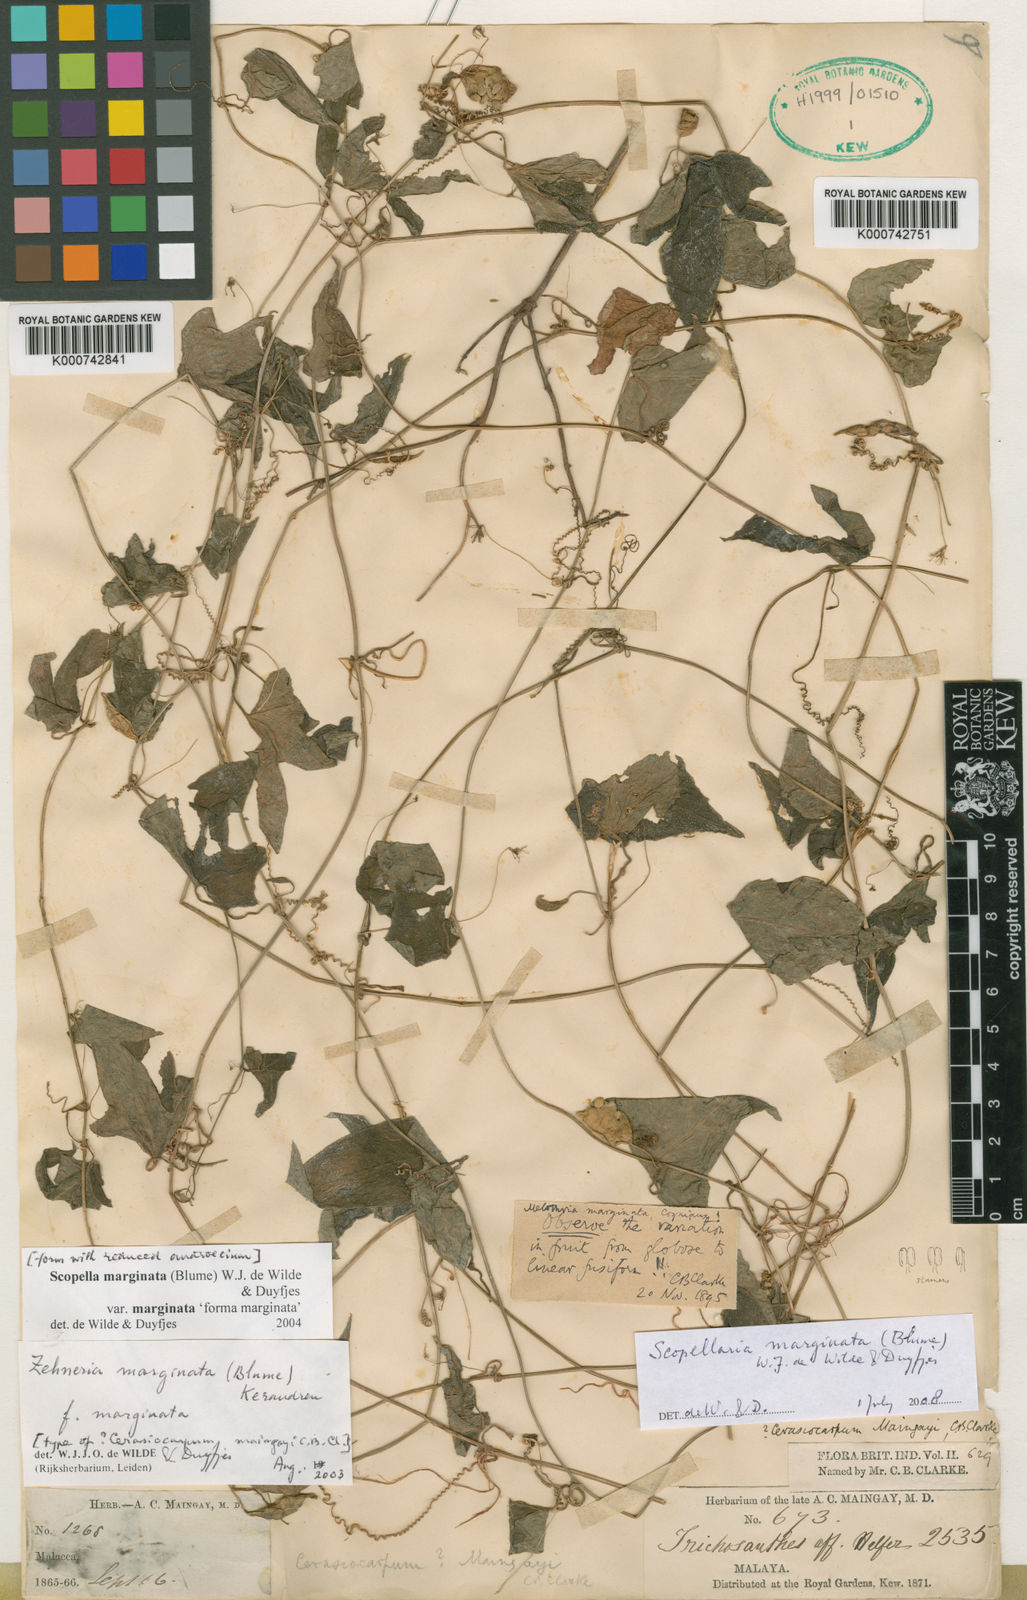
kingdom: Plantae
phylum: Tracheophyta
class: Magnoliopsida
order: Cucurbitales
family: Cucurbitaceae
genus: Scopellaria
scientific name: Scopellaria marginata
